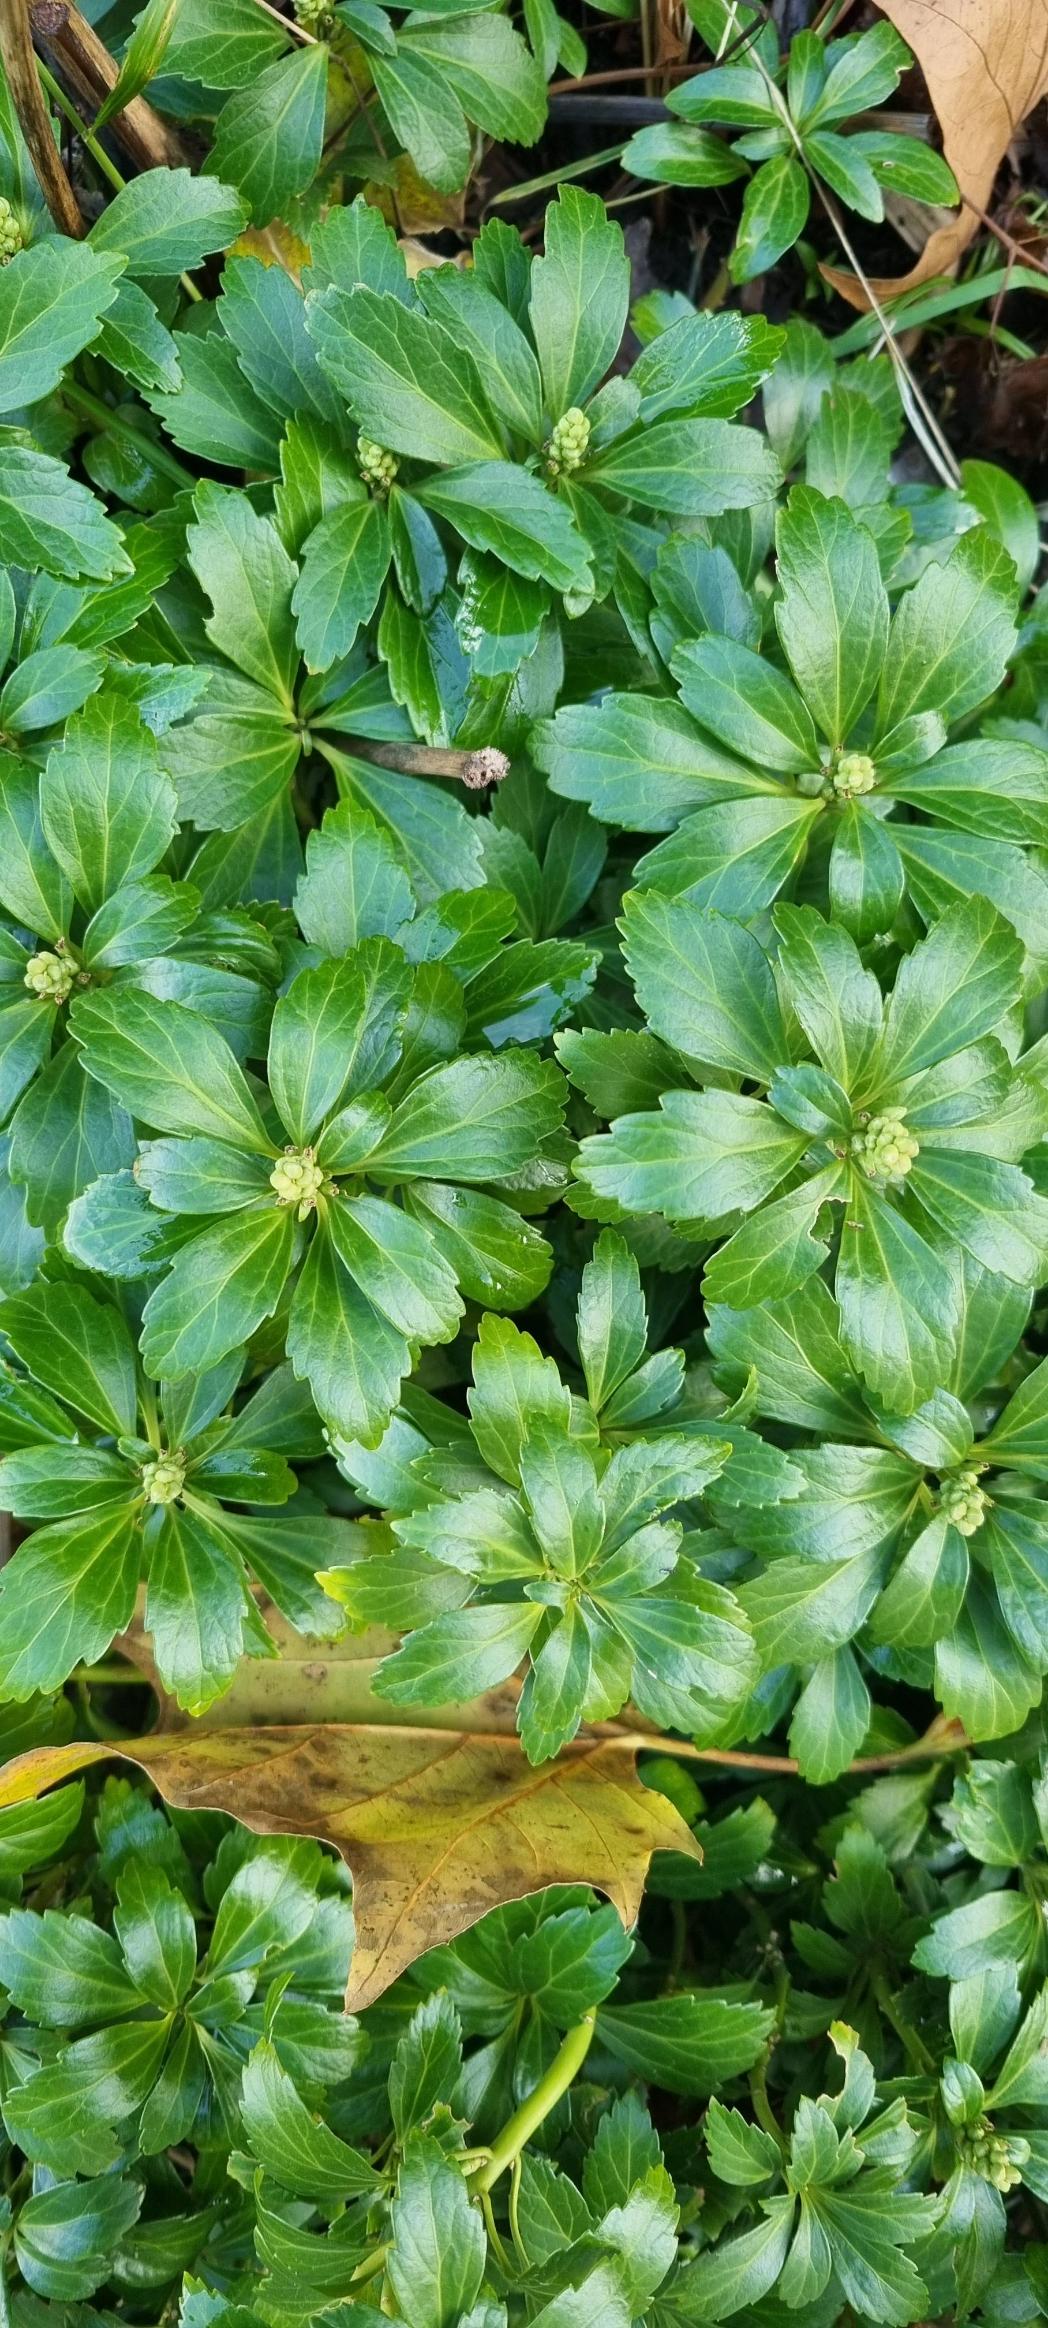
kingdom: Plantae
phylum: Tracheophyta
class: Magnoliopsida
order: Buxales
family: Buxaceae
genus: Pachysandra
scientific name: Pachysandra terminalis
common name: Vinterglans
